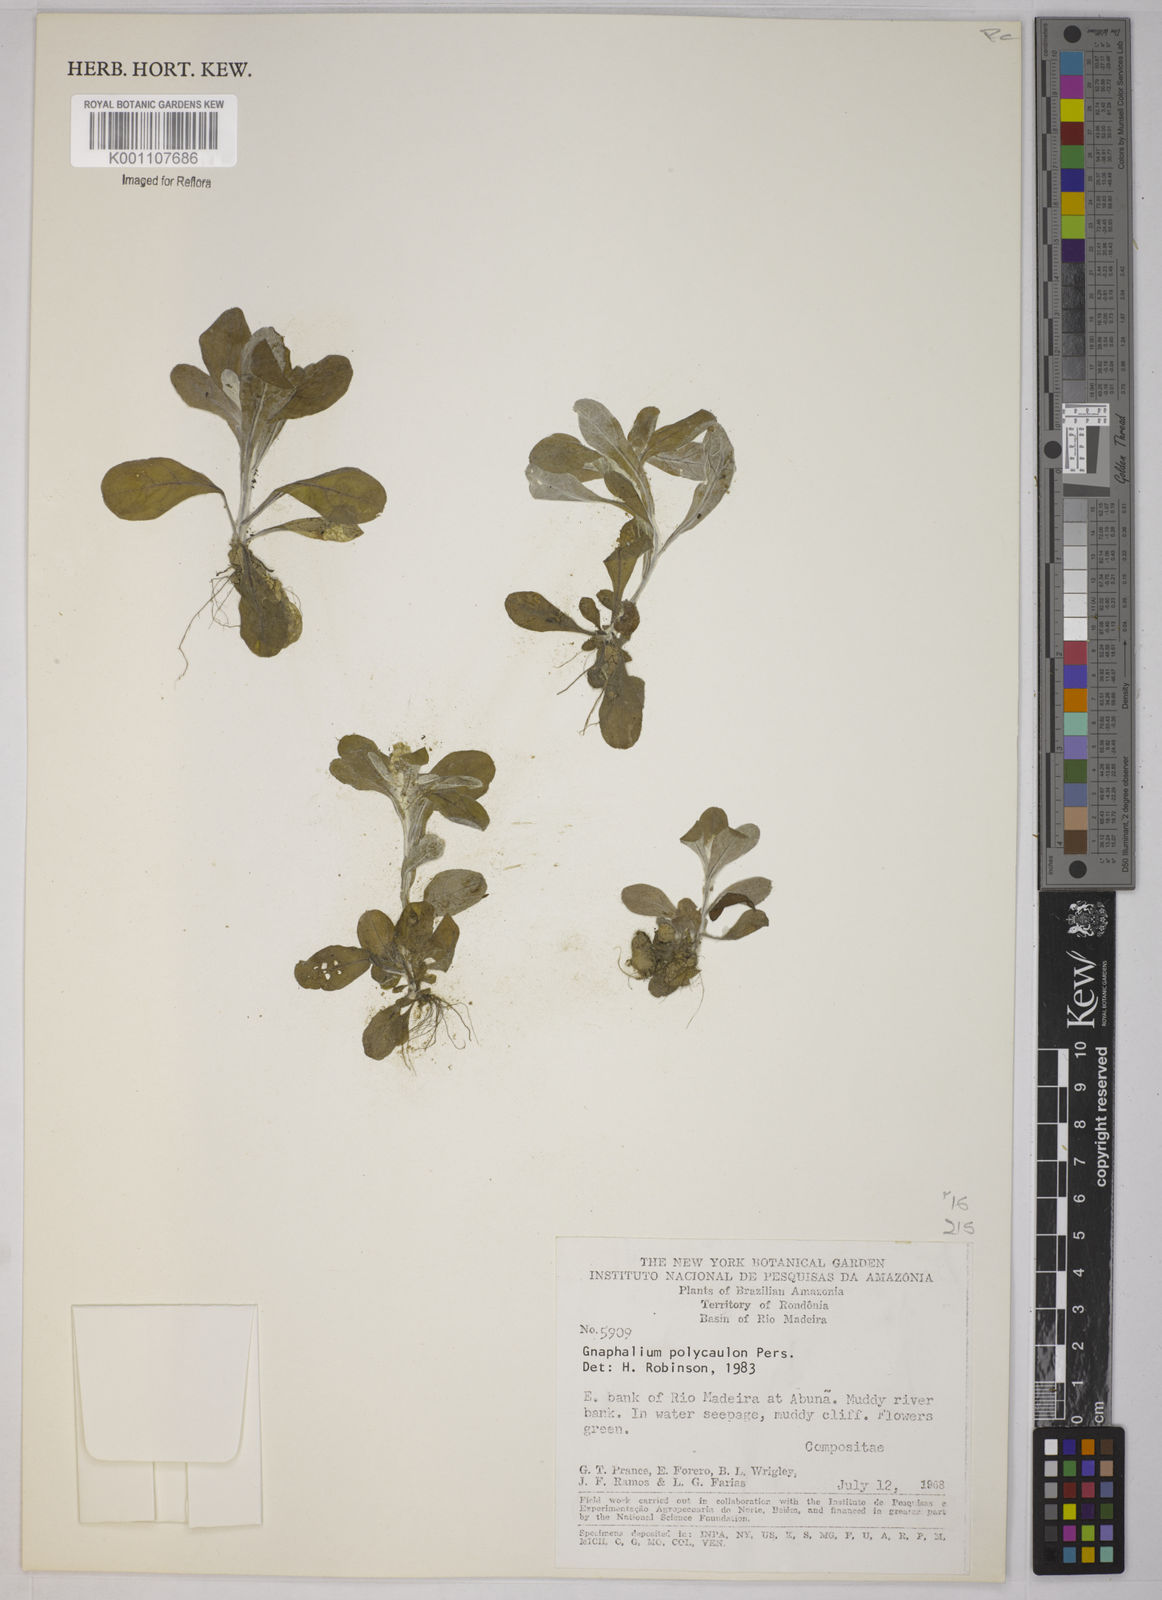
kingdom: Plantae
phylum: Tracheophyta
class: Magnoliopsida
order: Asterales
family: Asteraceae
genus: Gnaphalium
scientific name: Gnaphalium polycaulon
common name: Western cudweed
